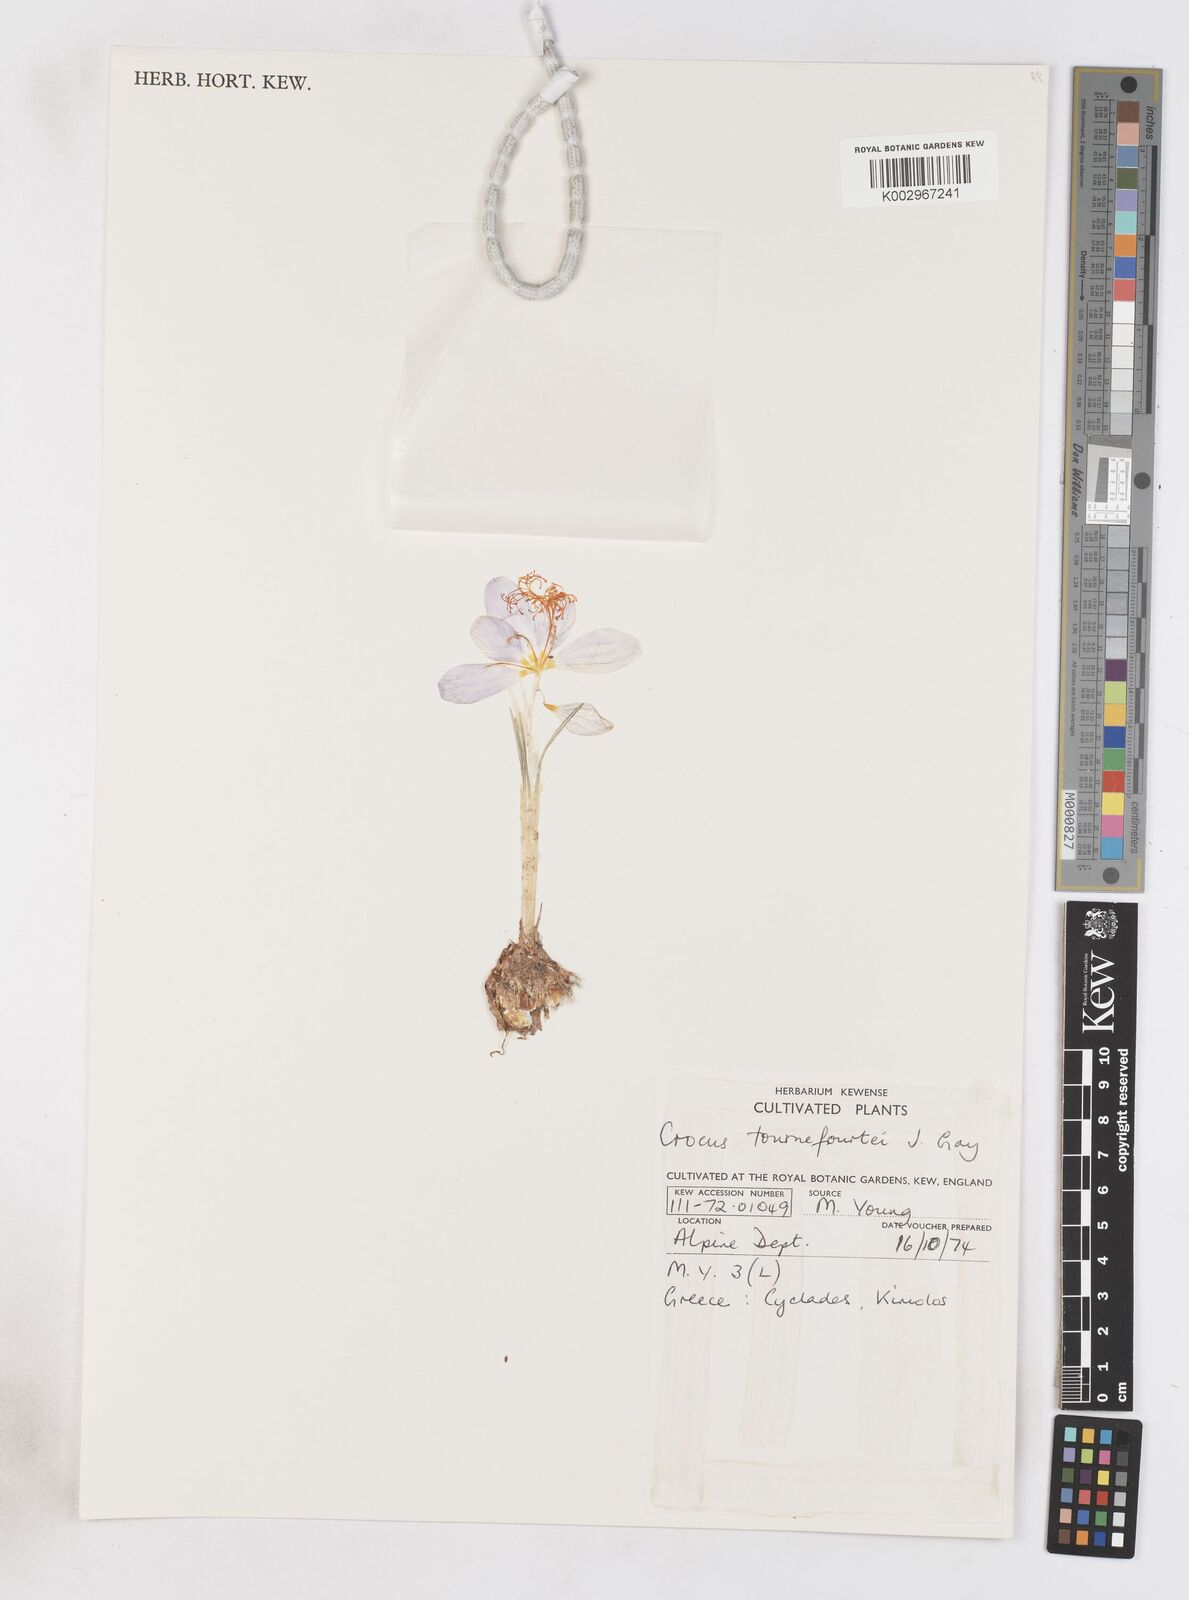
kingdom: Plantae
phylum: Tracheophyta
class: Liliopsida
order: Asparagales
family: Iridaceae
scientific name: Iridaceae
